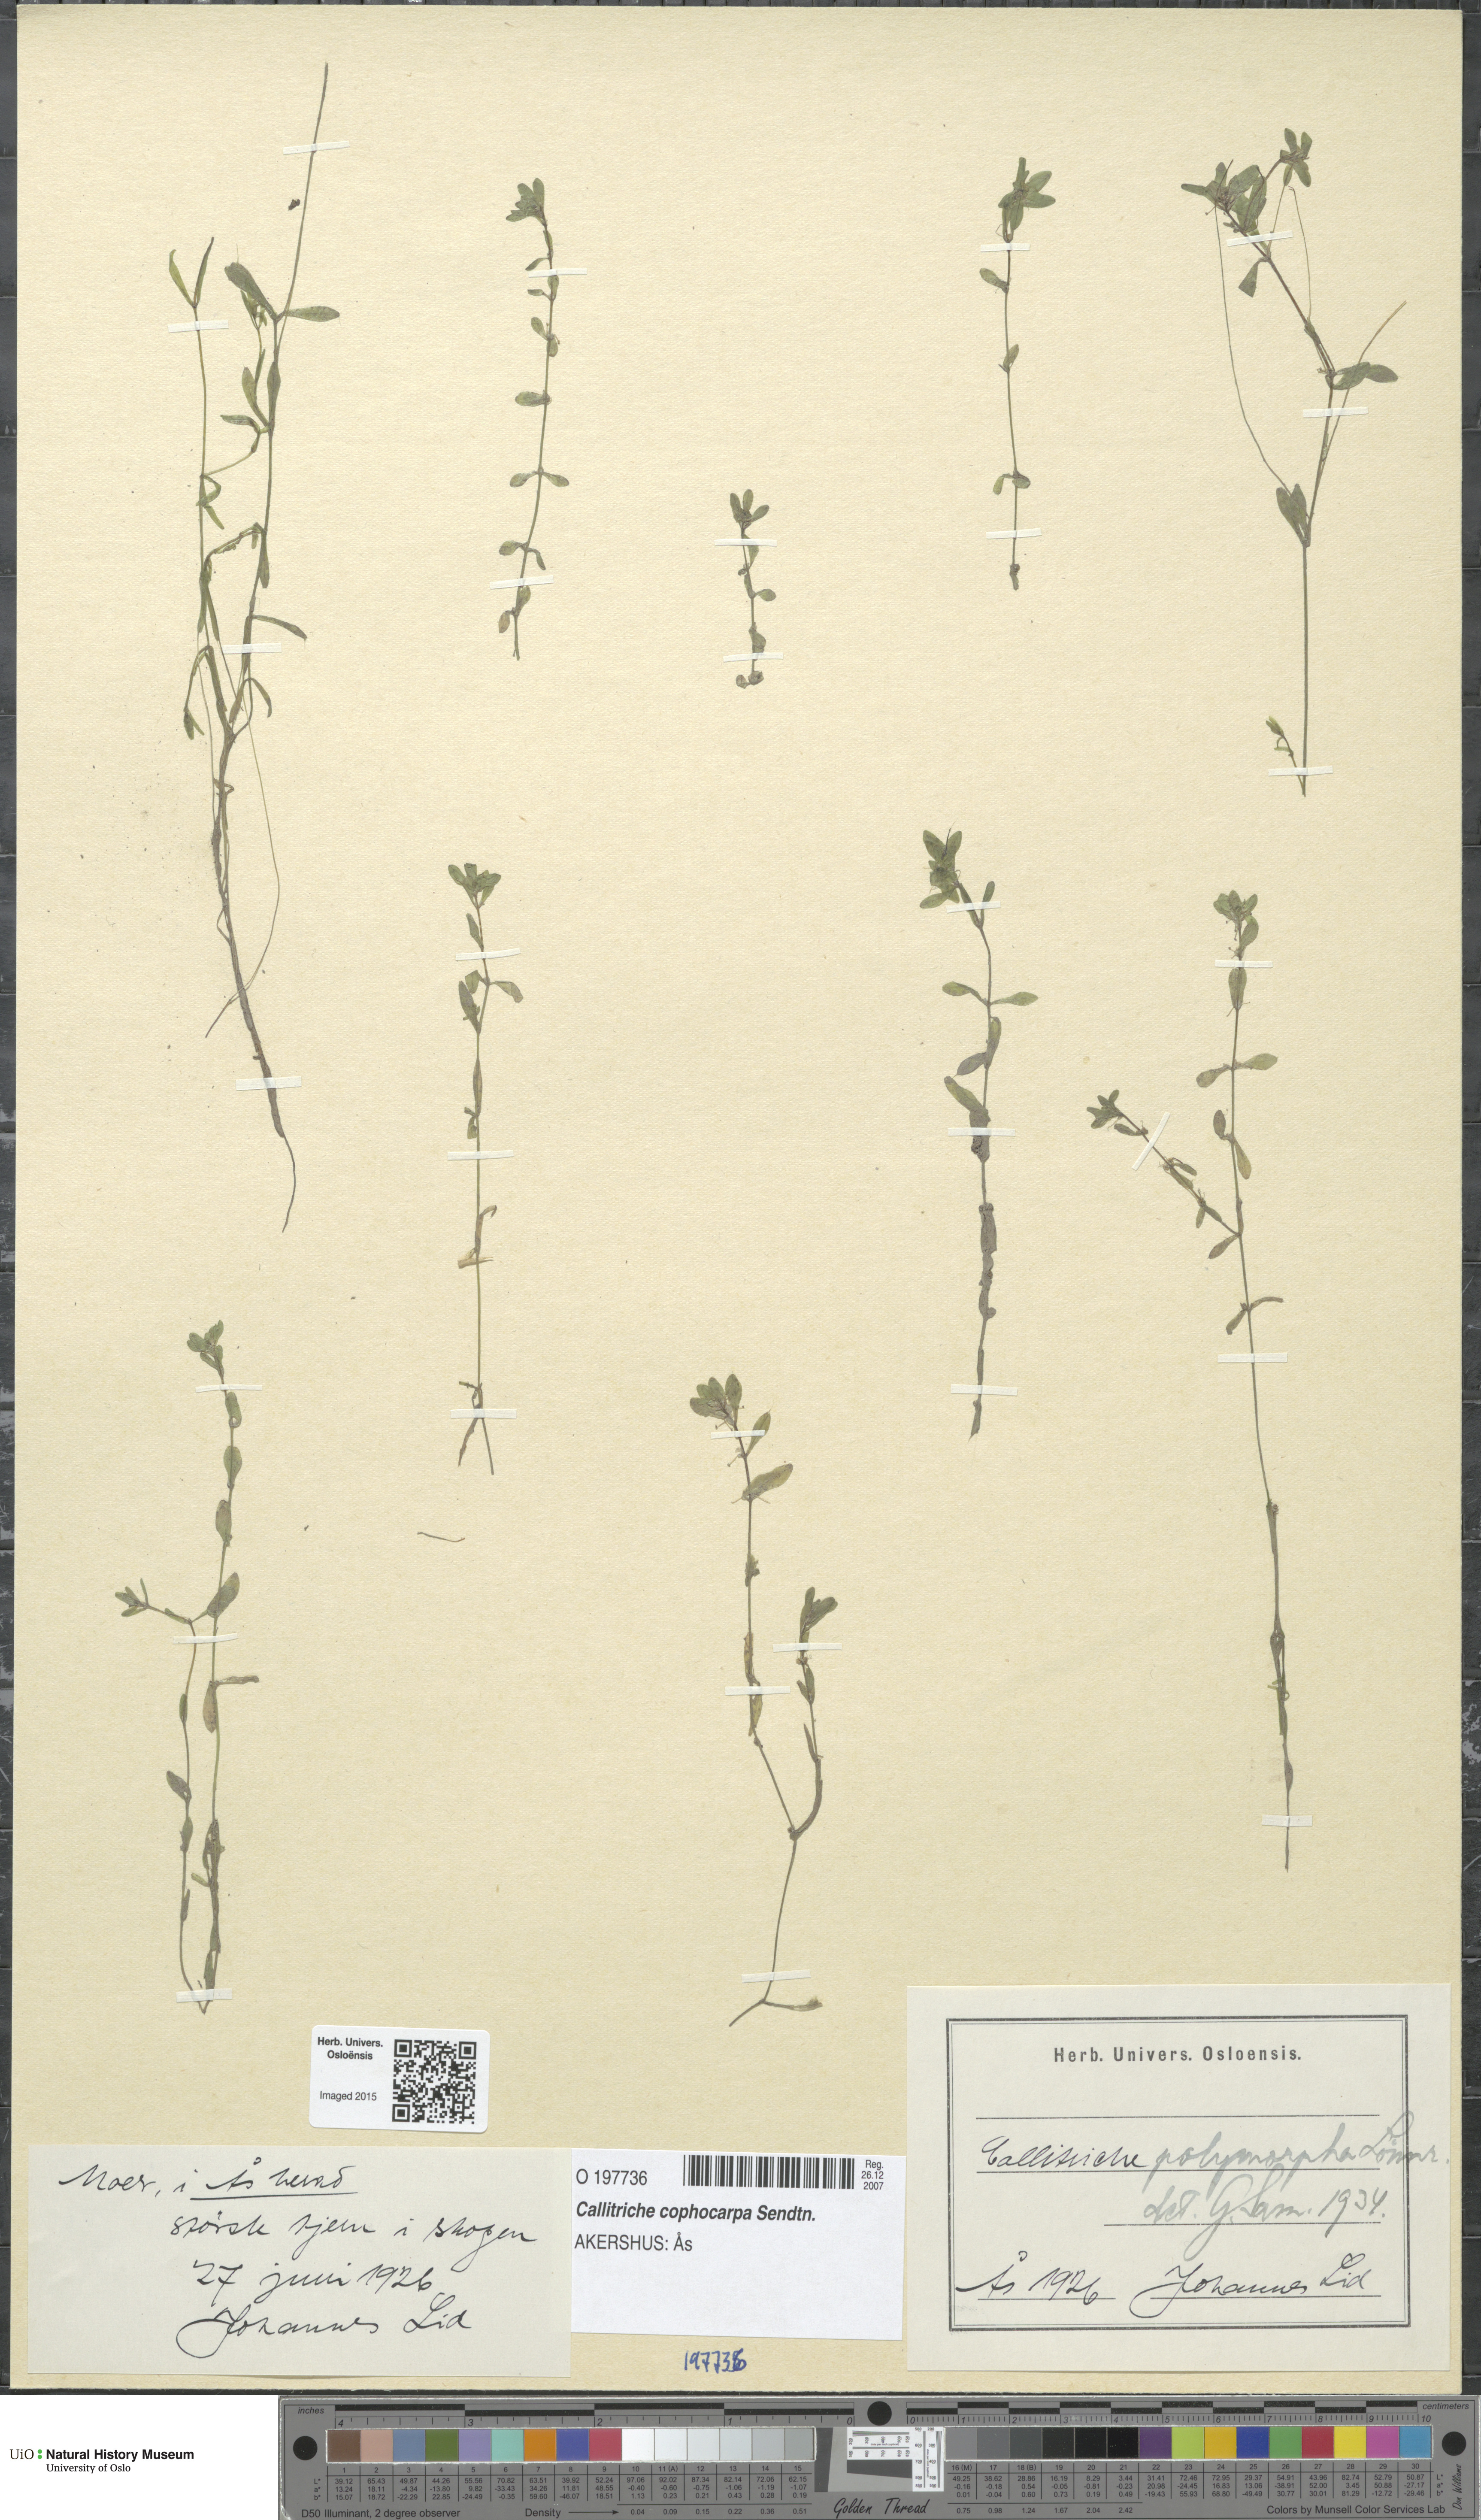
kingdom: Plantae
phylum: Tracheophyta
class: Magnoliopsida
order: Lamiales
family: Plantaginaceae
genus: Callitriche
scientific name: Callitriche cophocarpa
